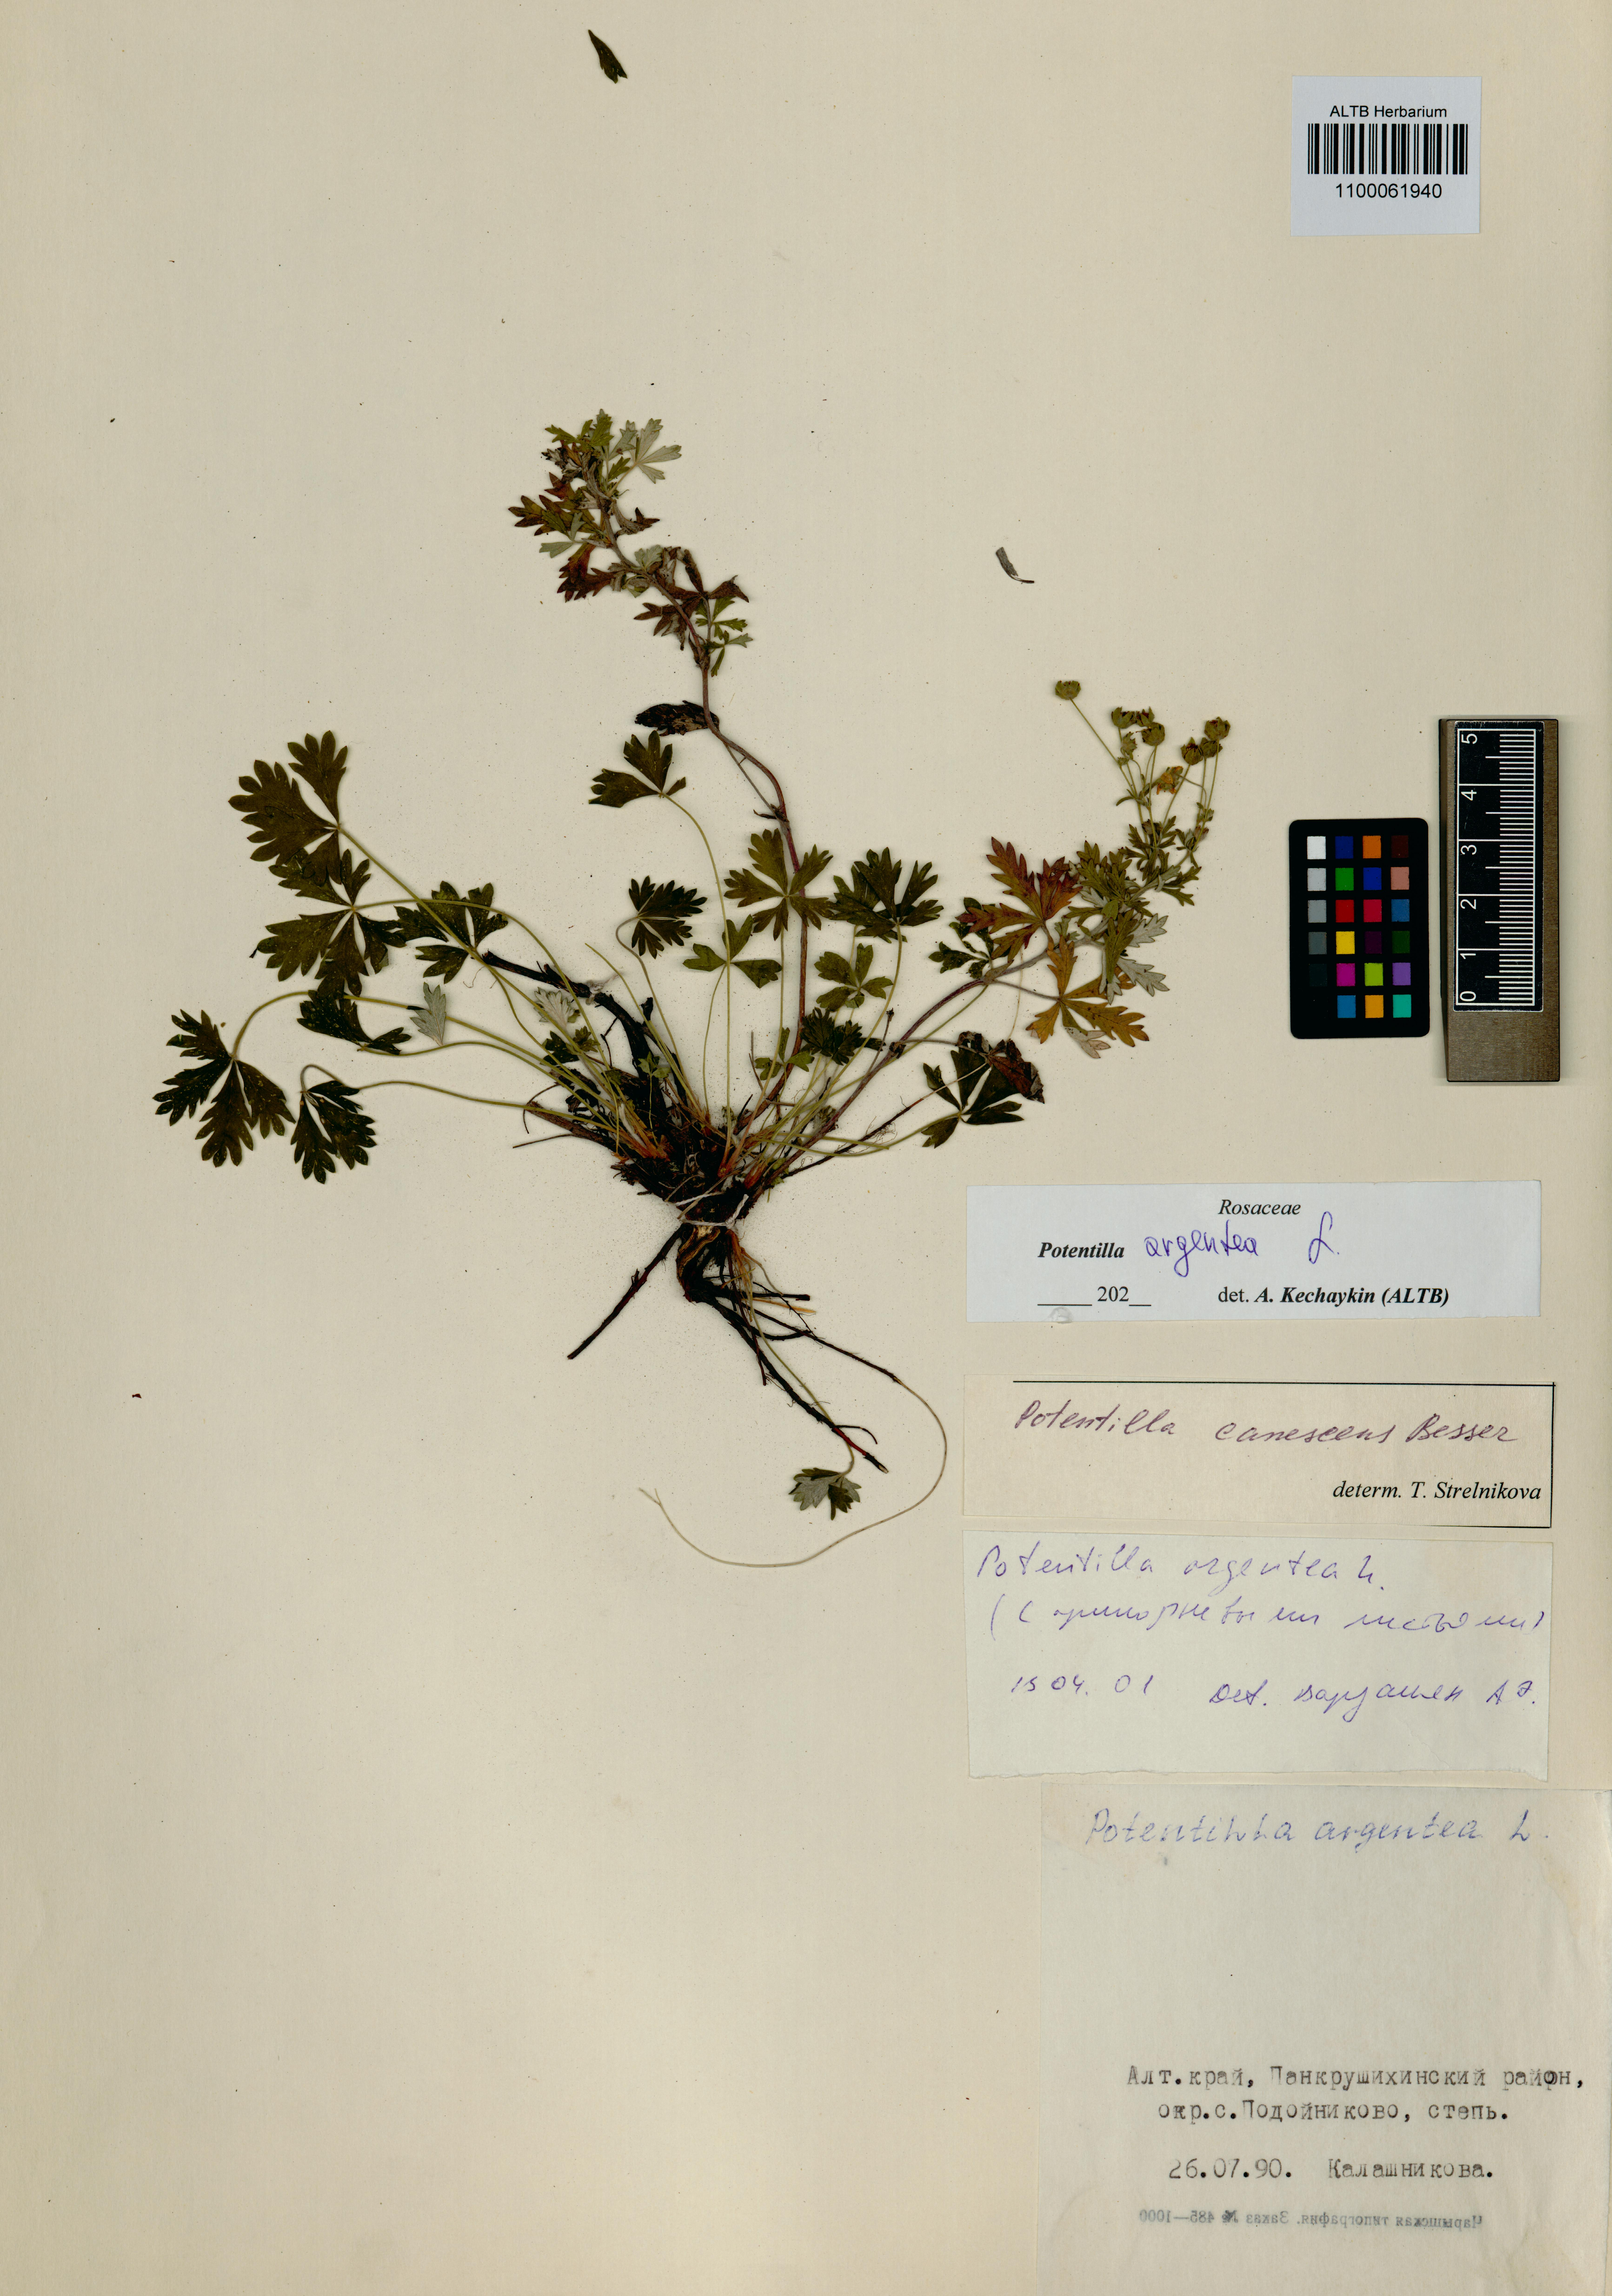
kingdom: Plantae
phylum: Tracheophyta
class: Magnoliopsida
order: Rosales
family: Rosaceae
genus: Potentilla
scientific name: Potentilla argentea
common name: Hoary cinquefoil
